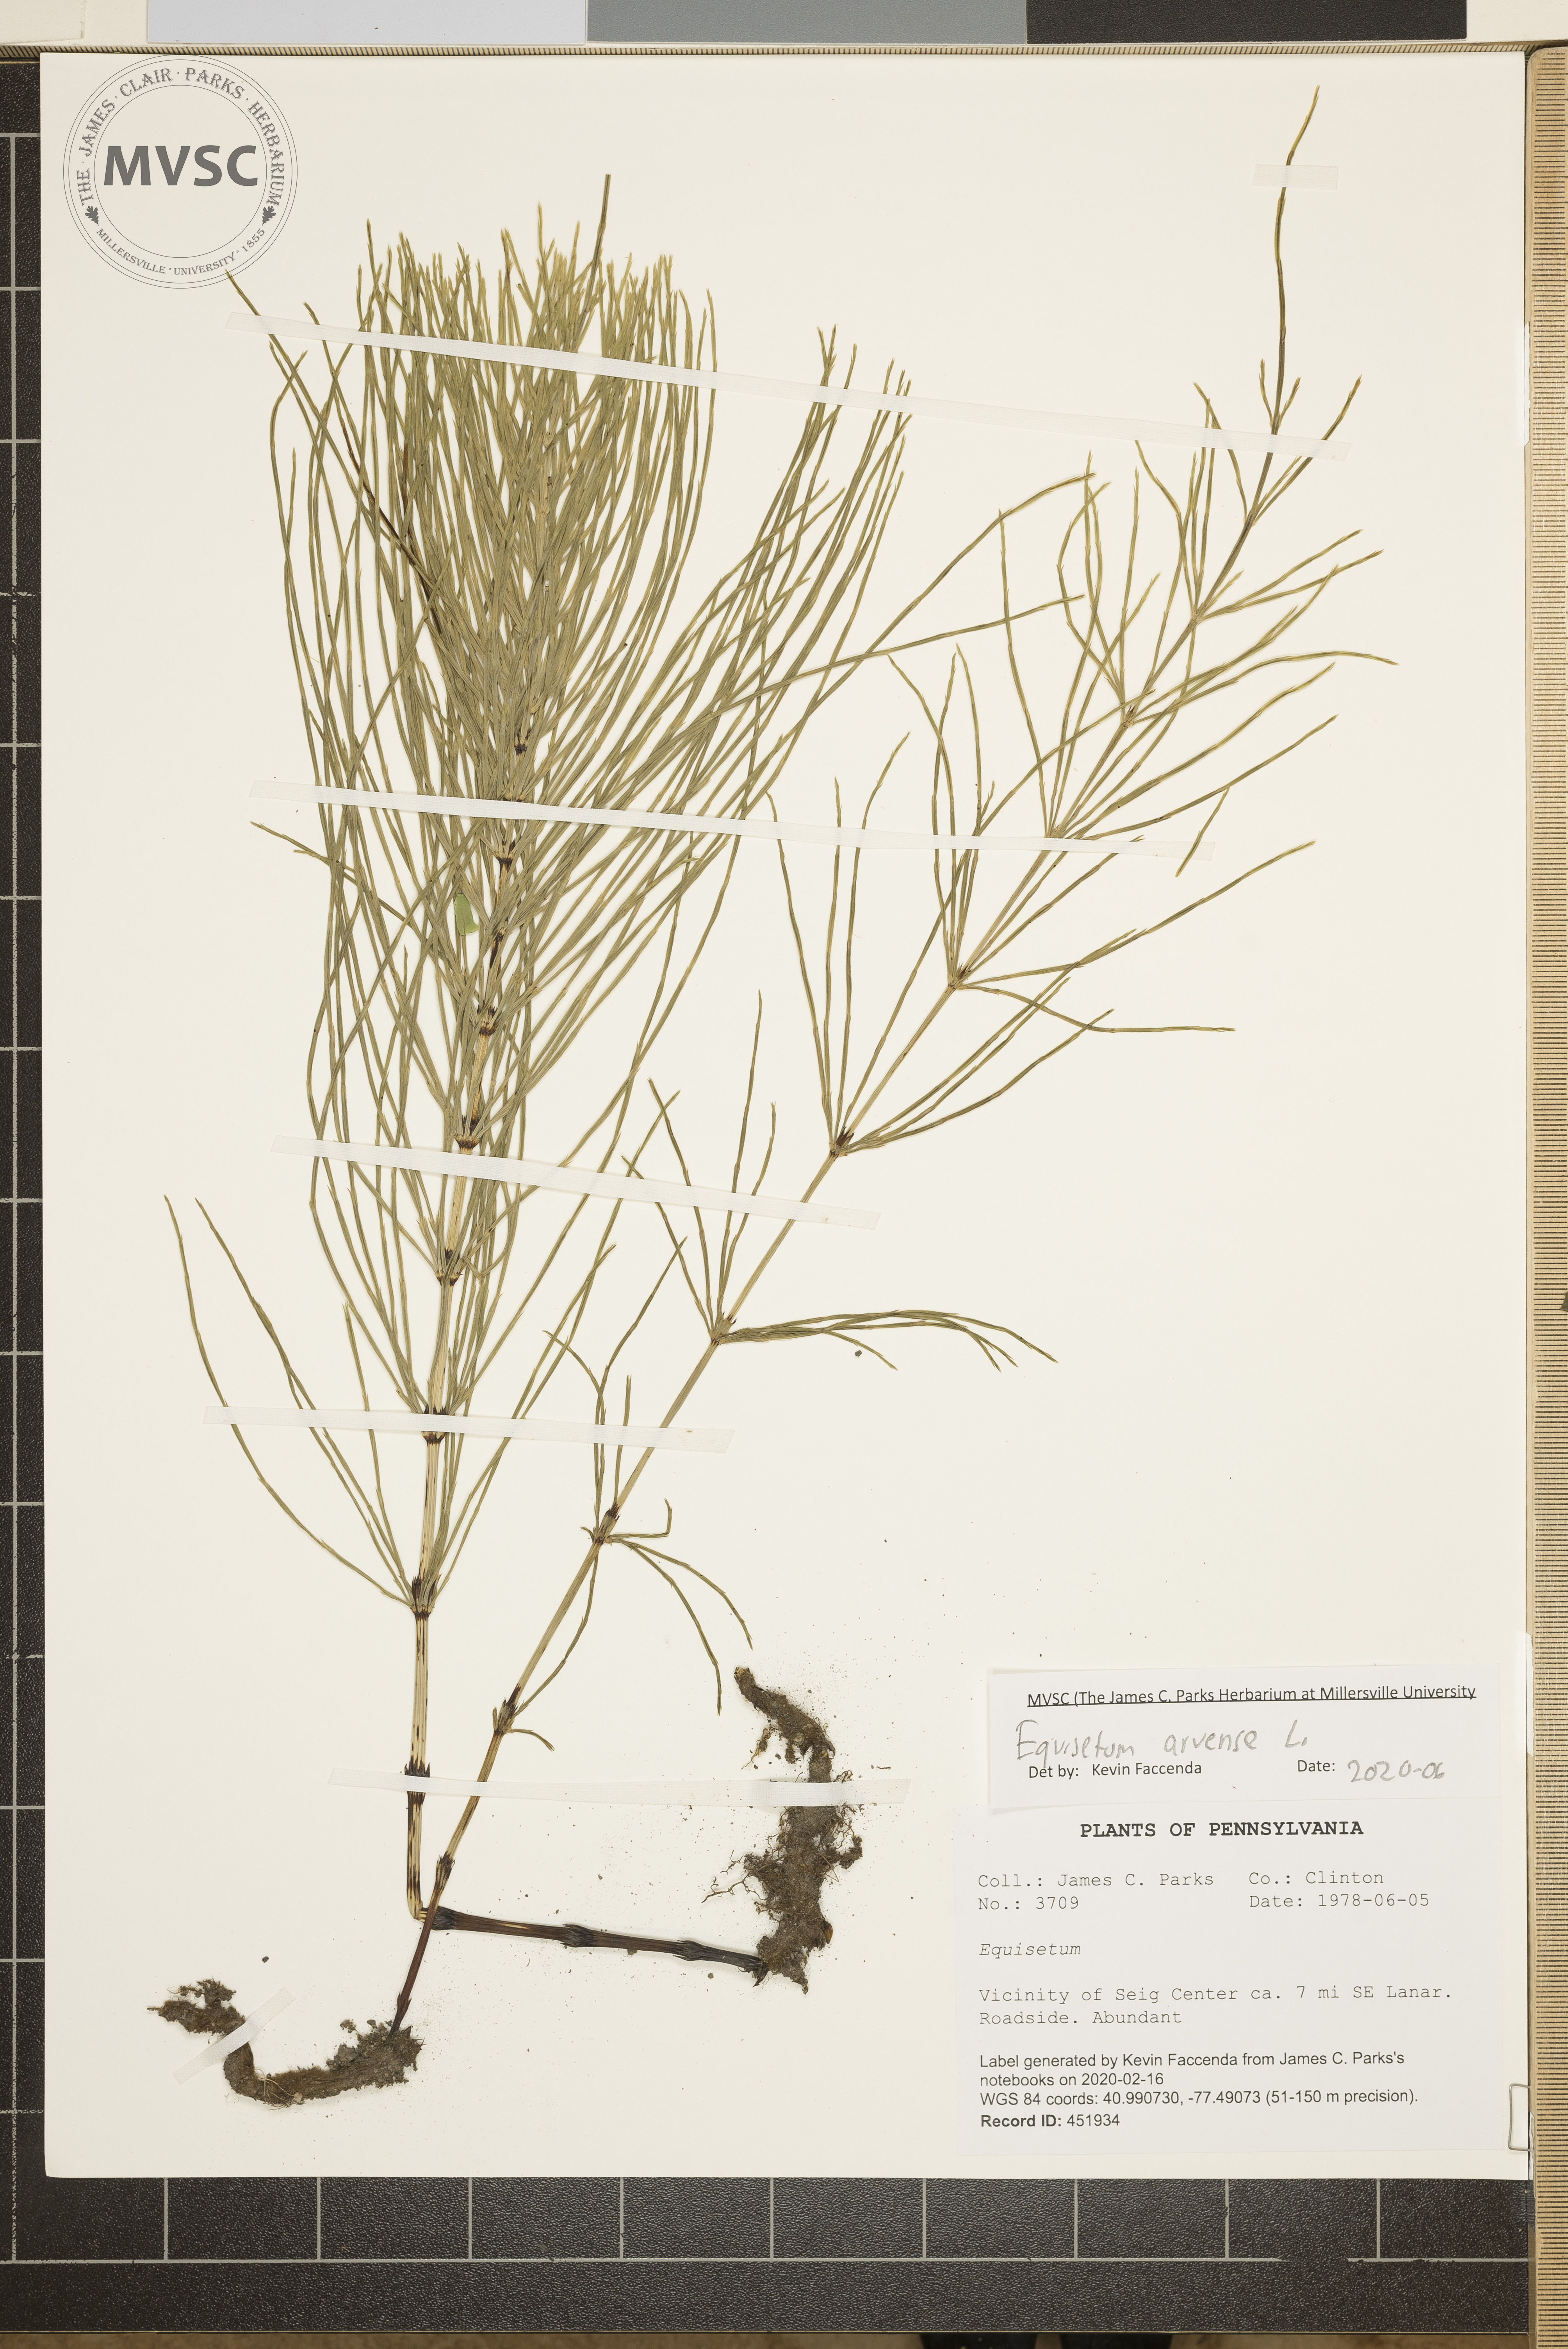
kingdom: Plantae
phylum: Tracheophyta
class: Polypodiopsida
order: Equisetales
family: Equisetaceae
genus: Equisetum
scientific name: Equisetum arvense
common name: Field horsetail
